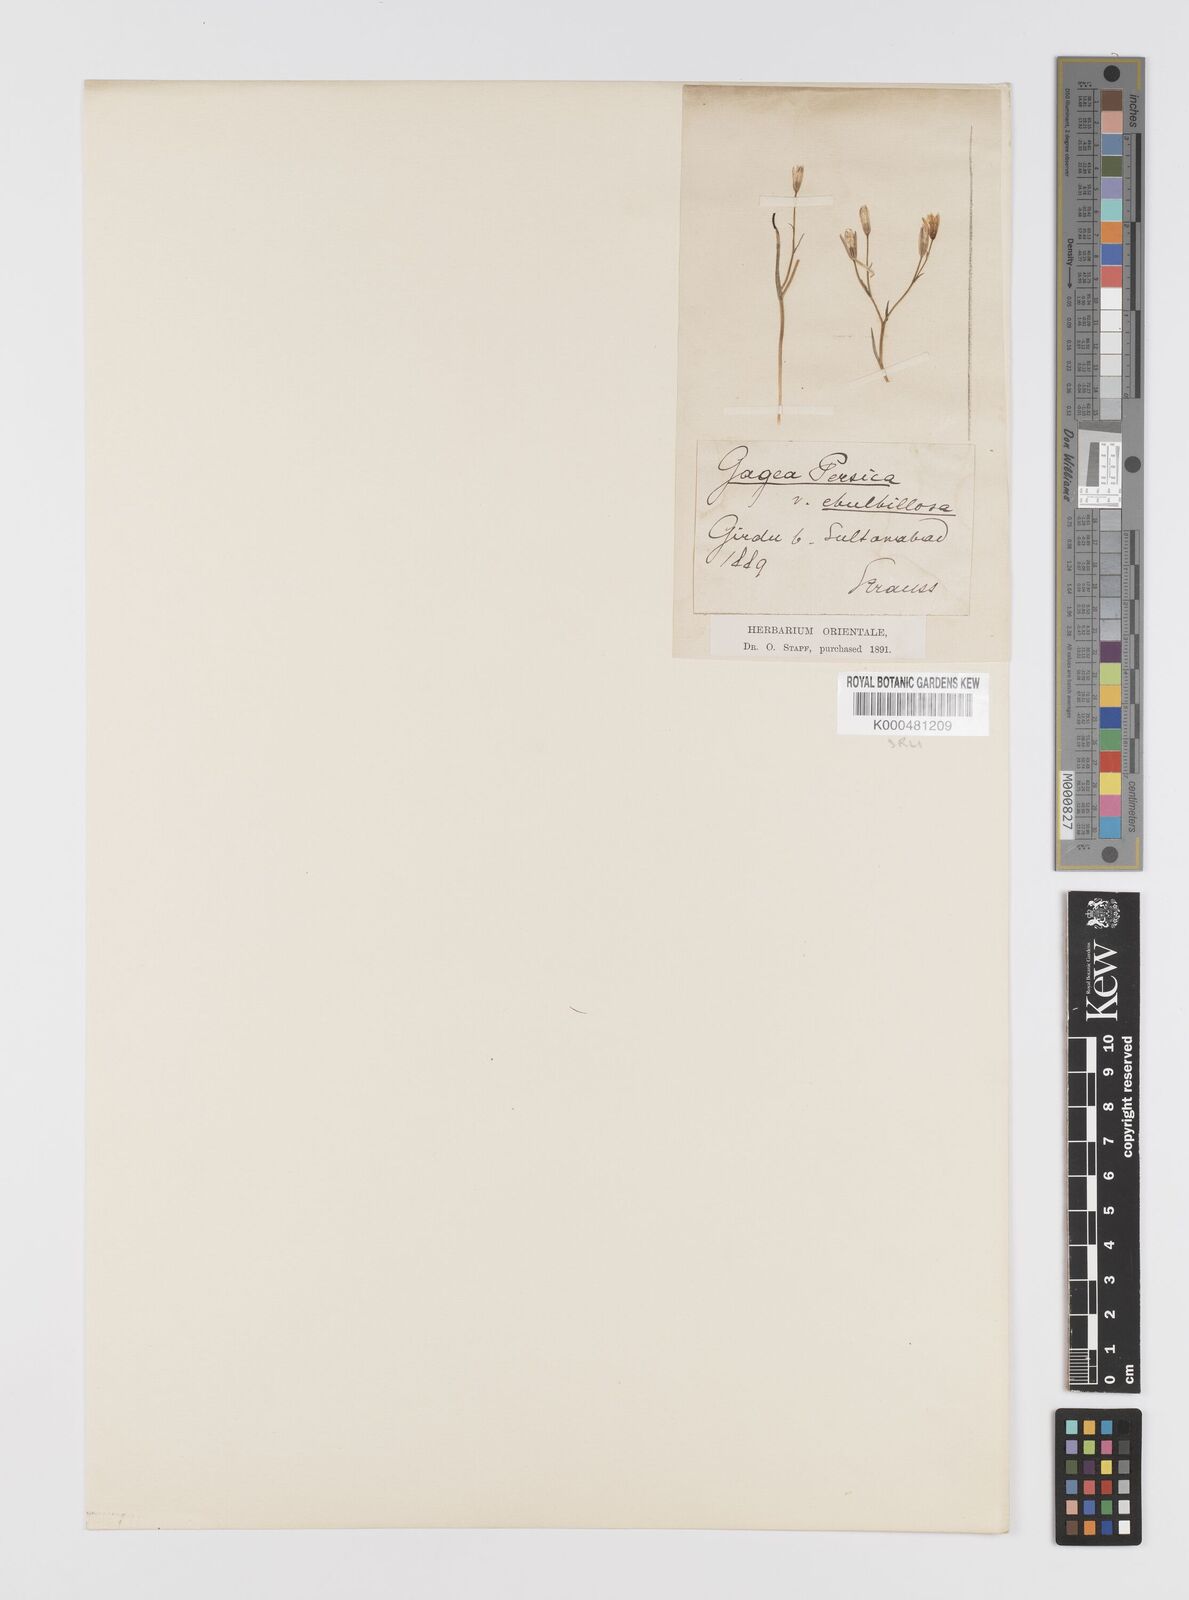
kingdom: Plantae
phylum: Tracheophyta
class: Liliopsida
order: Liliales
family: Liliaceae
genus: Gagea
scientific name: Gagea kunawurensis
